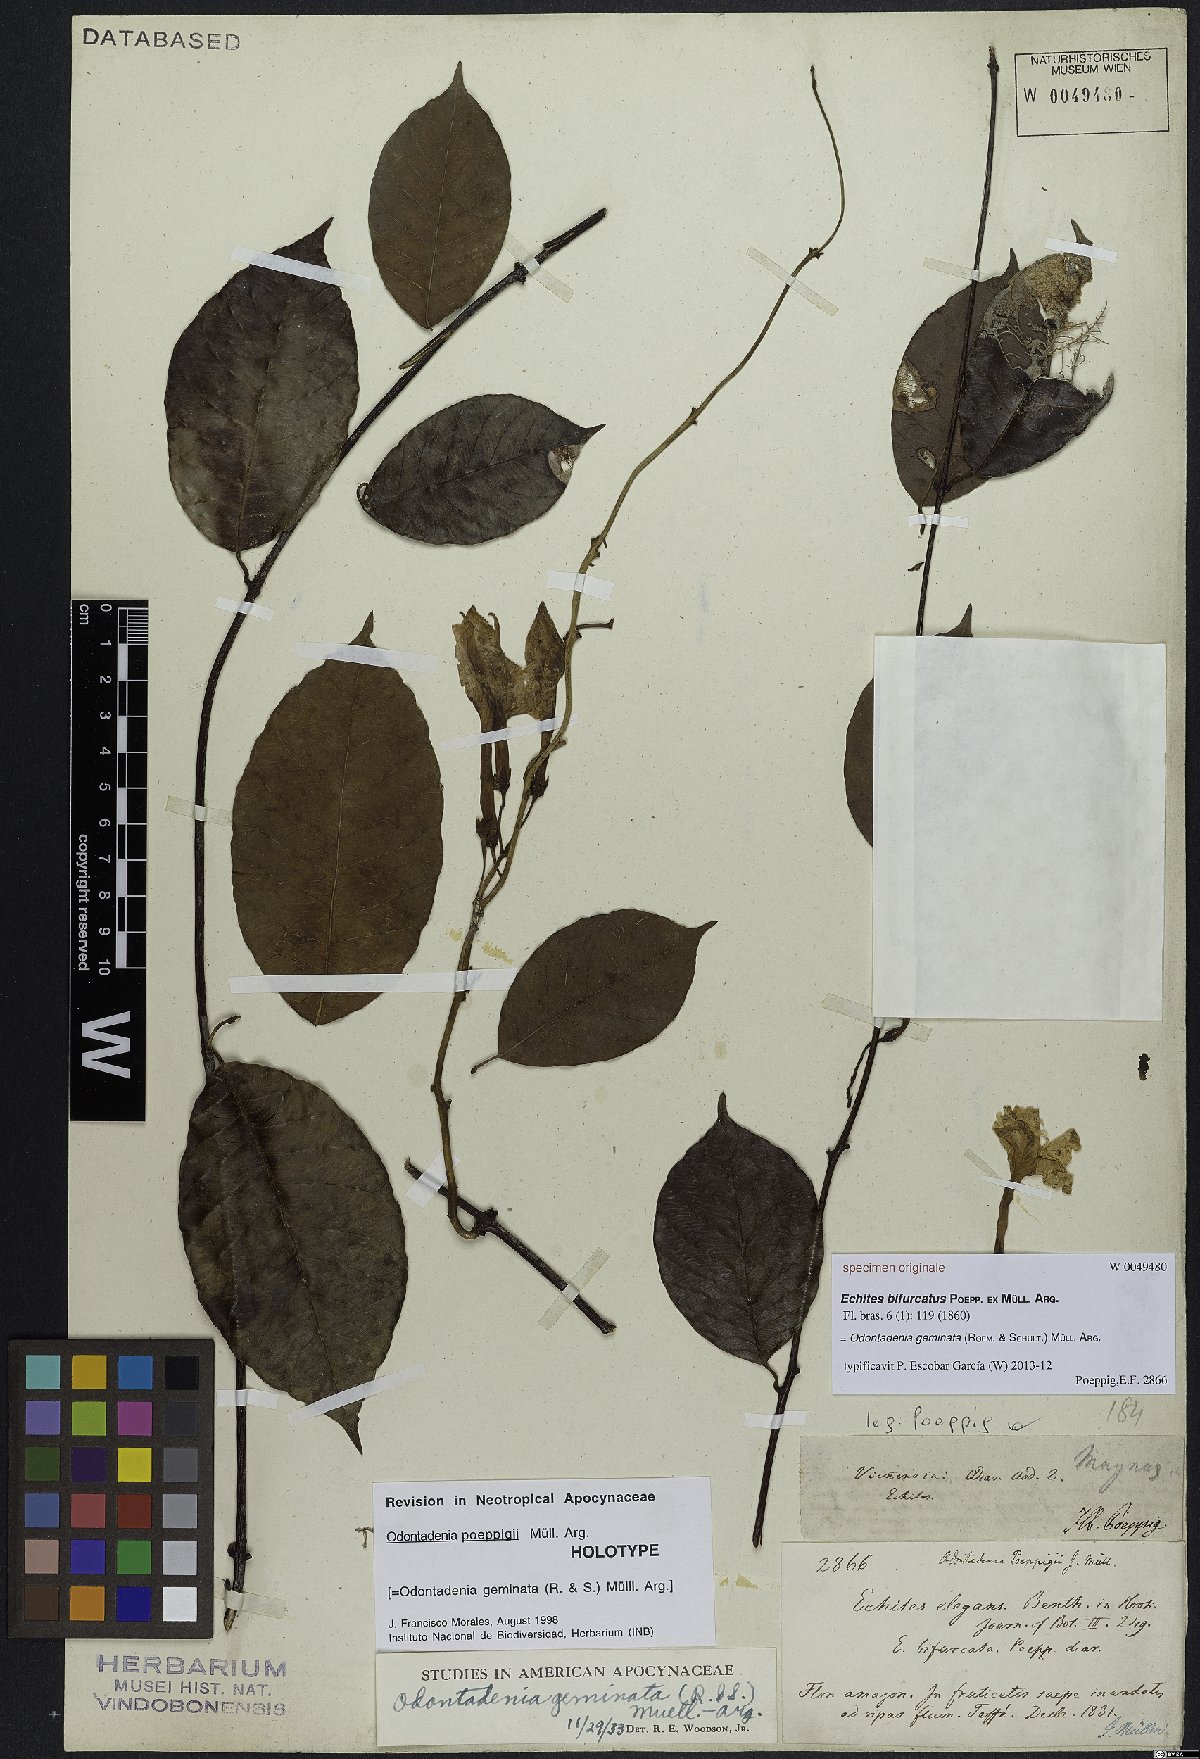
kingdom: Plantae
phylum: Tracheophyta
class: Magnoliopsida
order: Gentianales
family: Apocynaceae
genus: Odontadenia
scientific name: Odontadenia geminata
